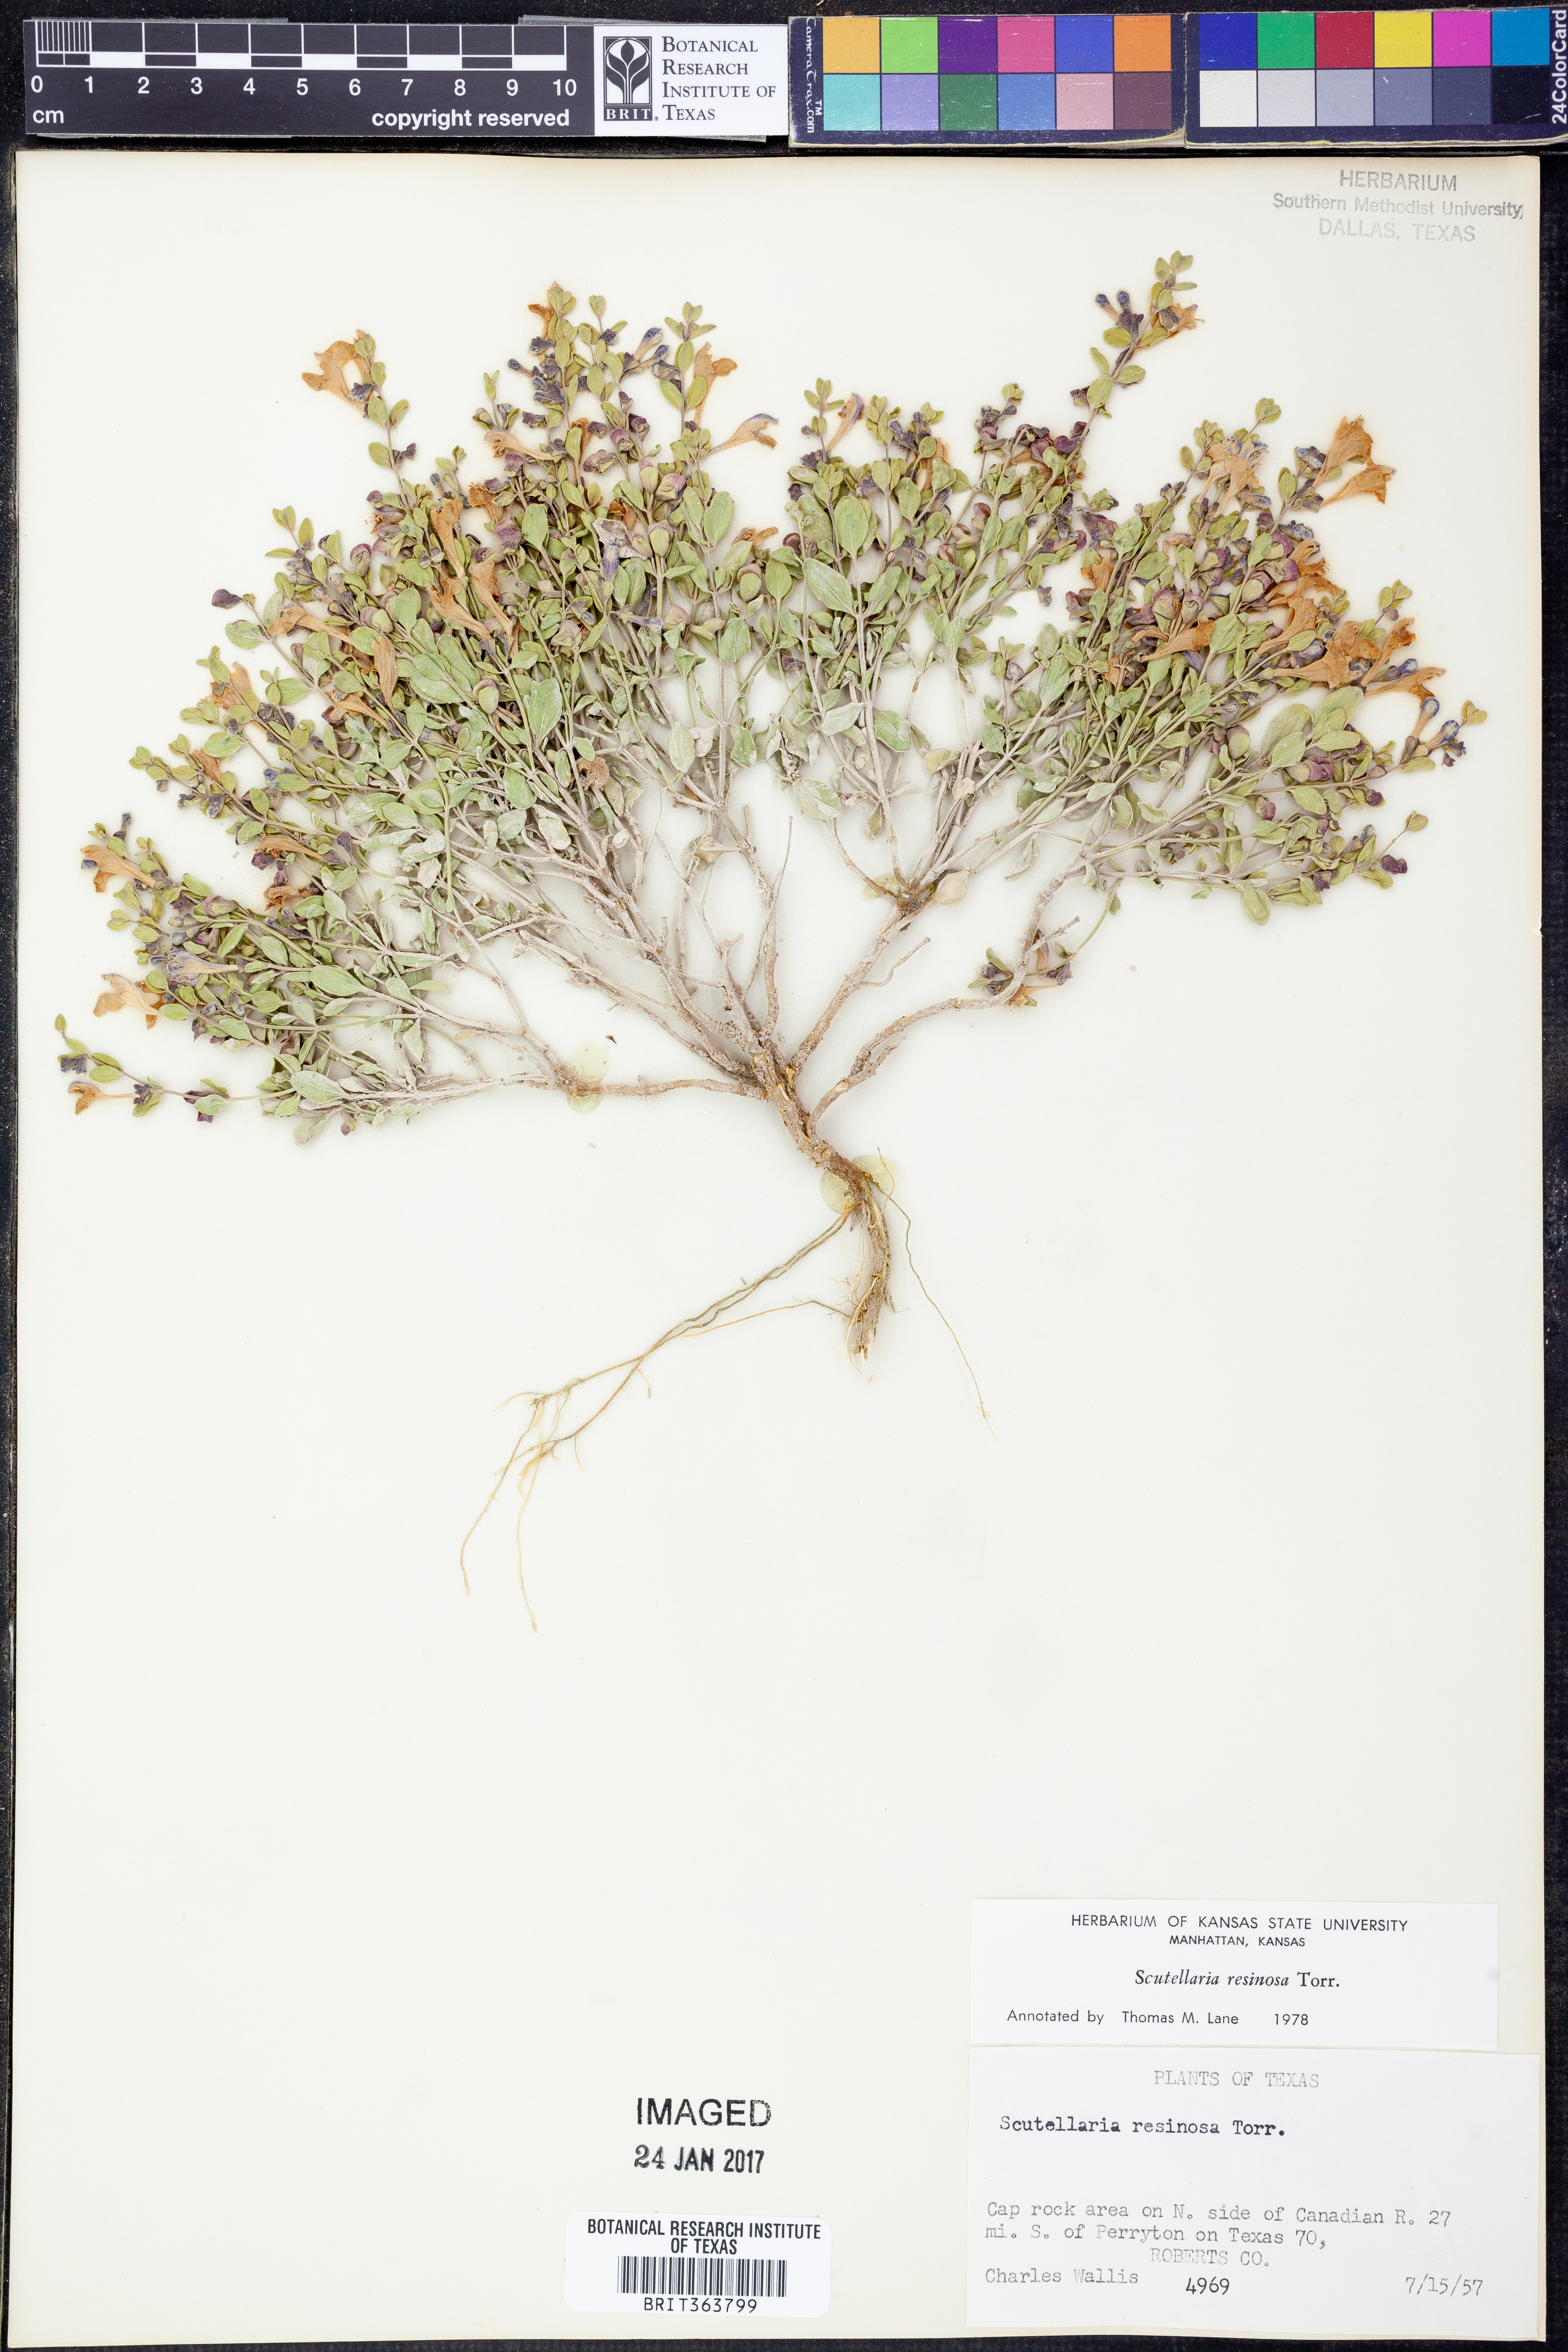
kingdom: Plantae
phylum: Tracheophyta
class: Magnoliopsida
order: Lamiales
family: Lamiaceae
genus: Scutellaria
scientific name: Scutellaria resinosa
